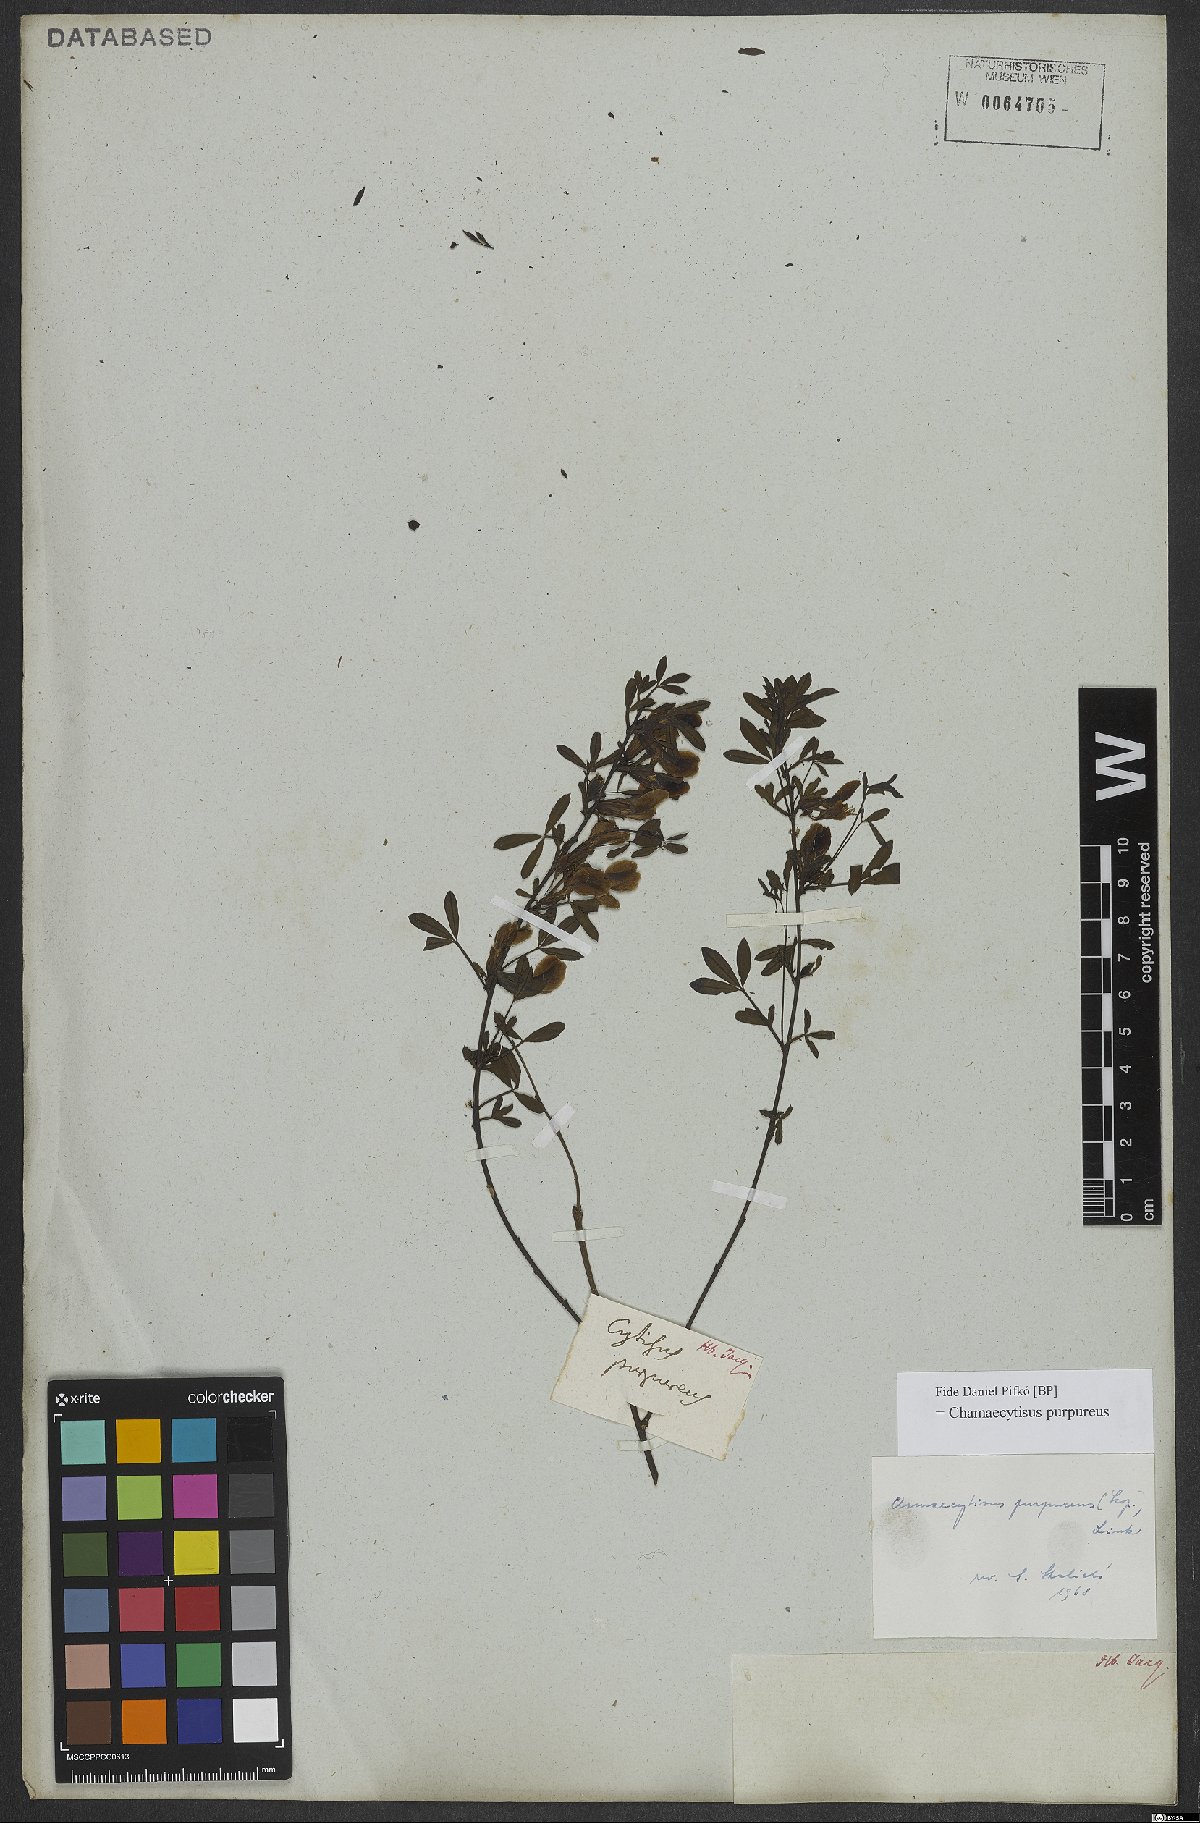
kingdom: Plantae
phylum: Tracheophyta
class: Magnoliopsida
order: Fabales
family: Fabaceae
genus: Chamaecytisus
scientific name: Chamaecytisus purpureus
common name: Purple broom
